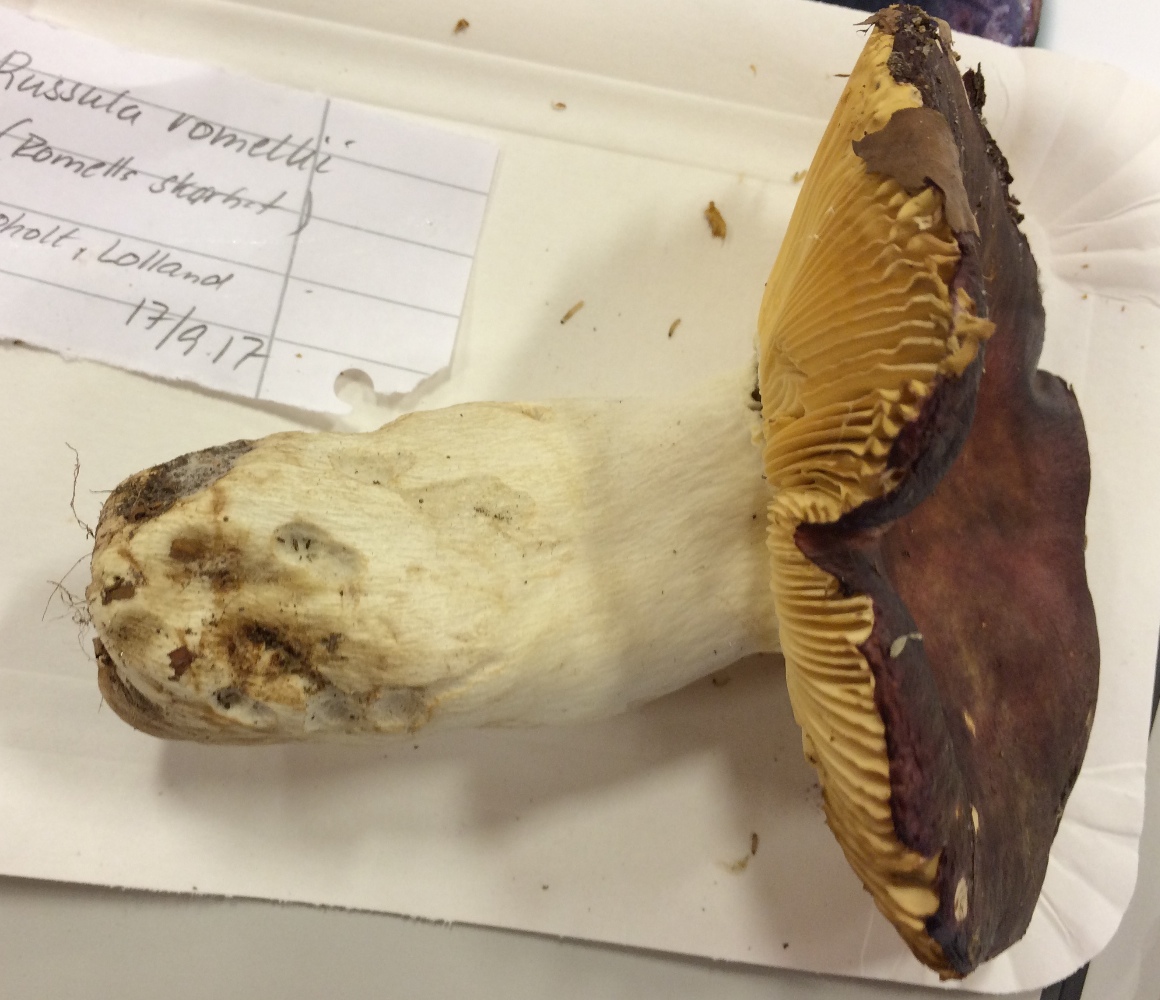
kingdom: Fungi
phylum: Basidiomycota
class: Agaricomycetes
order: Russulales
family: Russulaceae
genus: Russula
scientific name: Russula romellii
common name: romells skørhat
